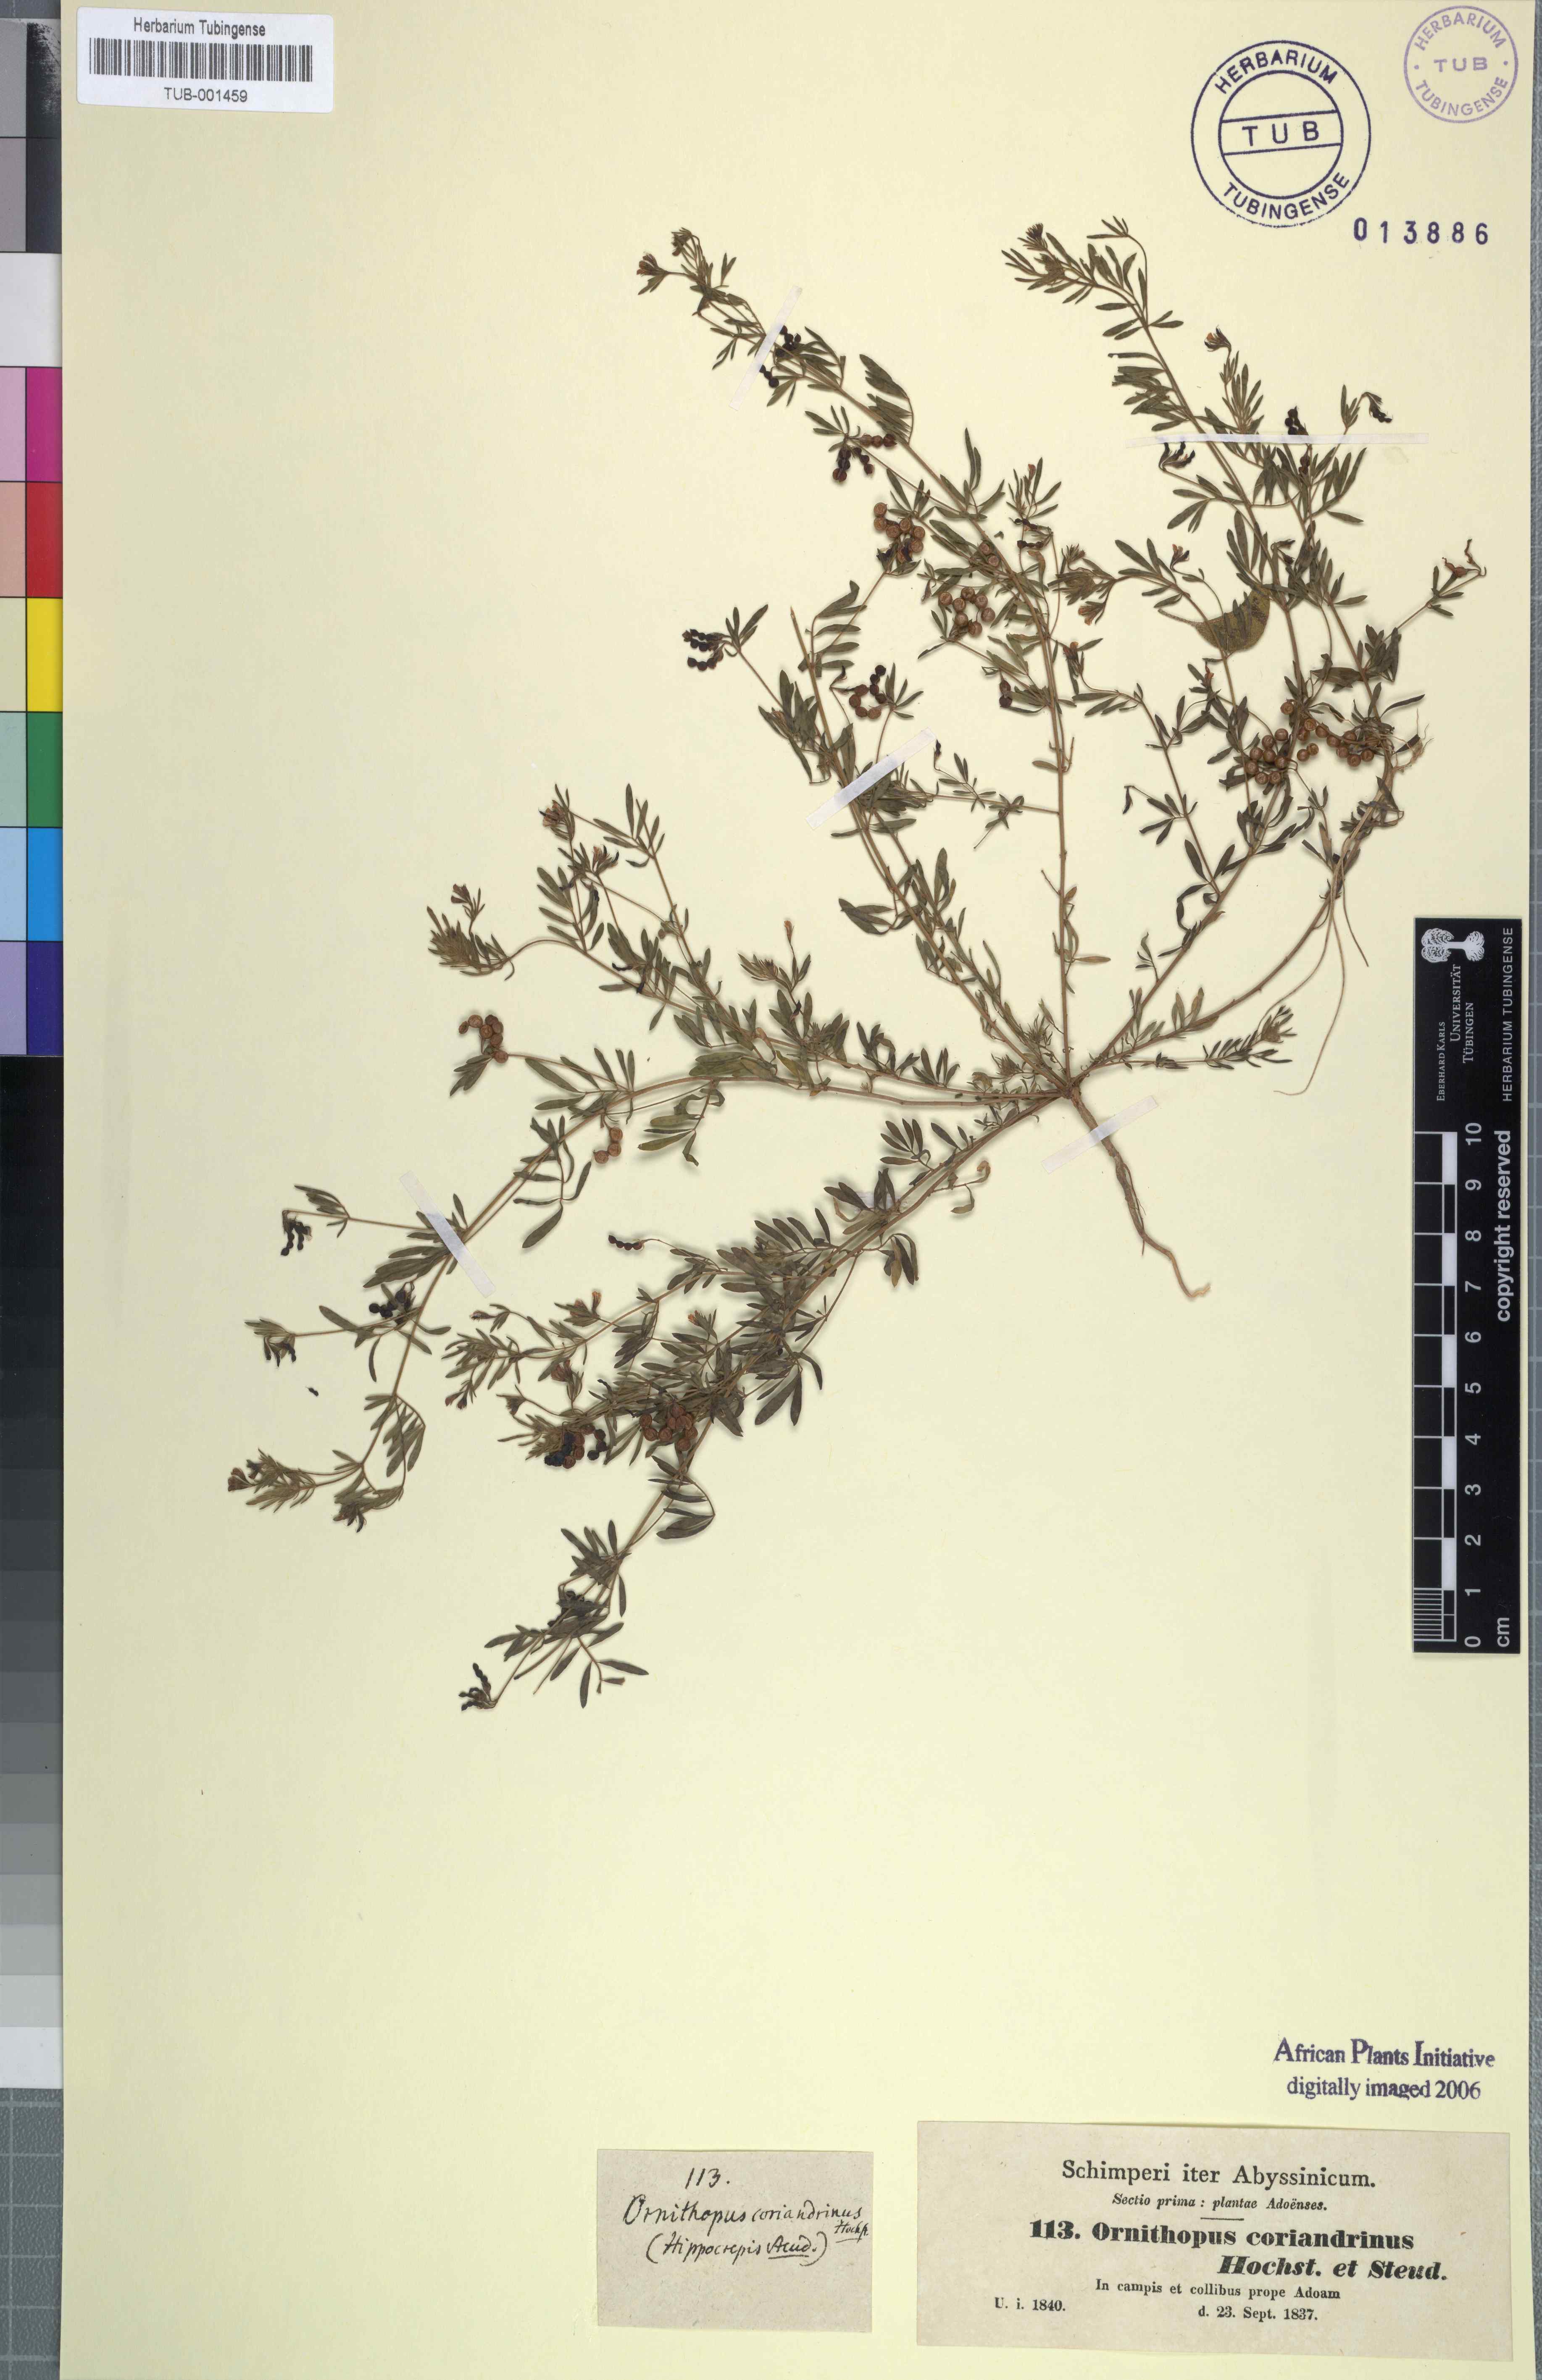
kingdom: Plantae
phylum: Tracheophyta
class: Magnoliopsida
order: Fabales
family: Fabaceae
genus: Ornithopus
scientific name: Ornithopus coriandrinus
